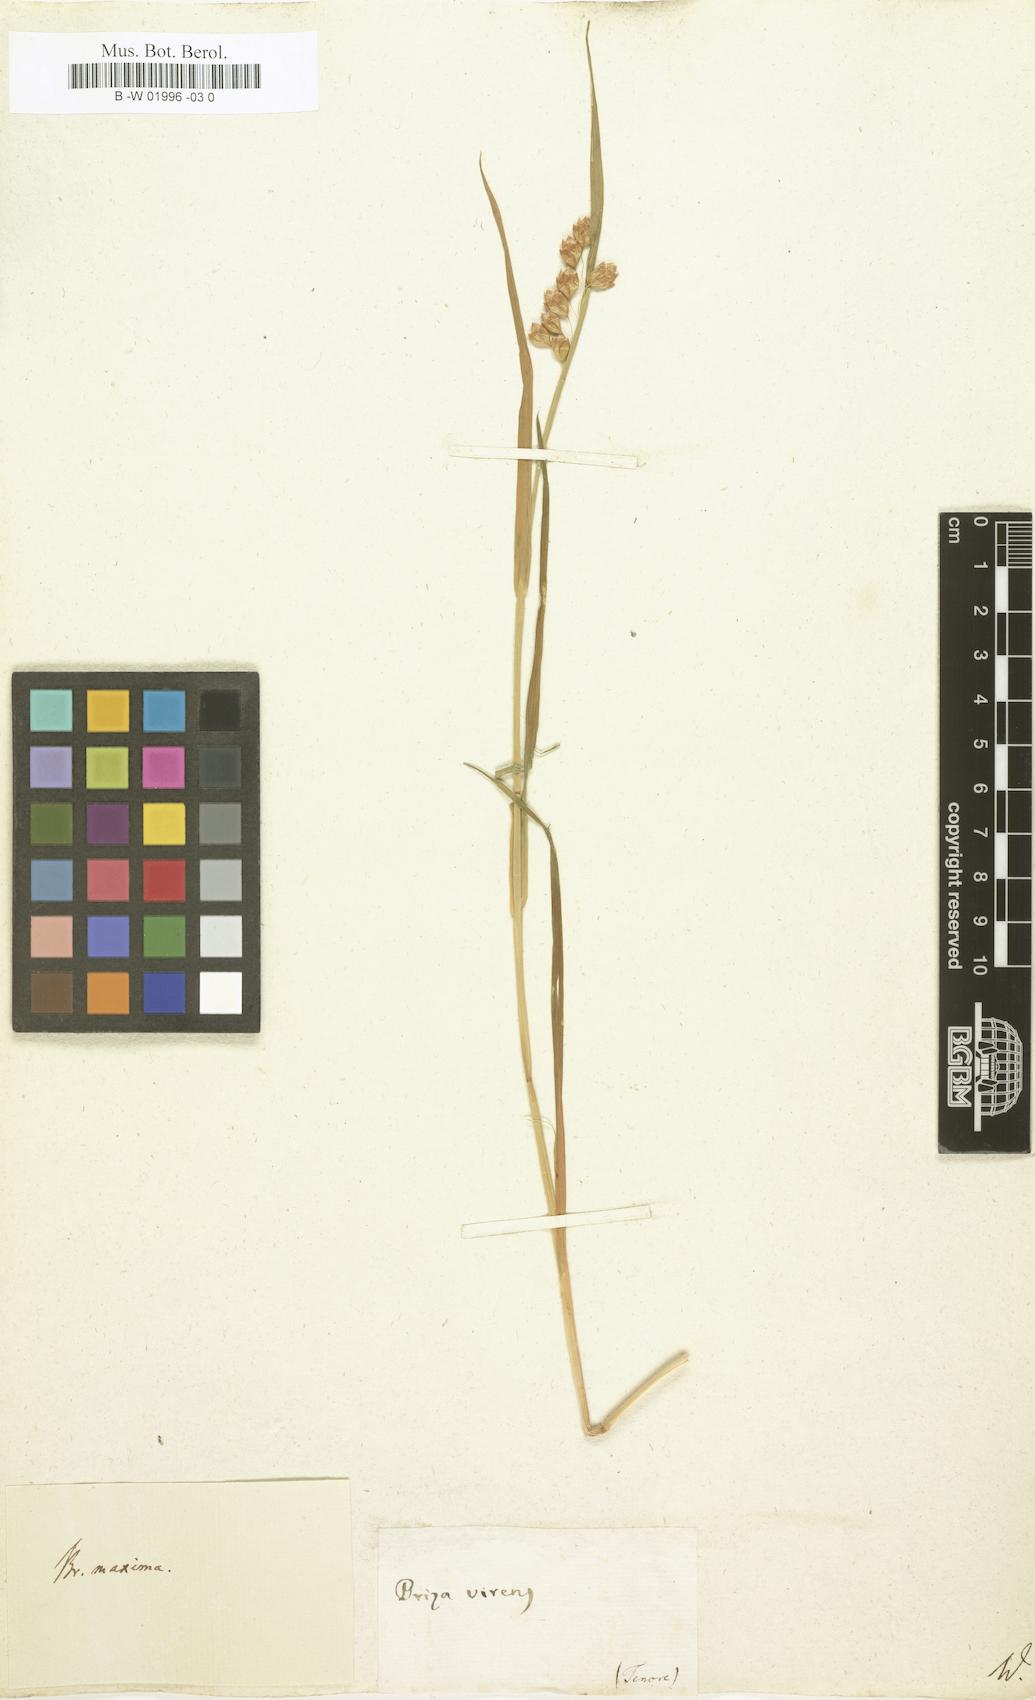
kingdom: Plantae
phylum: Tracheophyta
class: Liliopsida
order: Poales
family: Poaceae
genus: Chascolytrum
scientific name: Chascolytrum erectum
